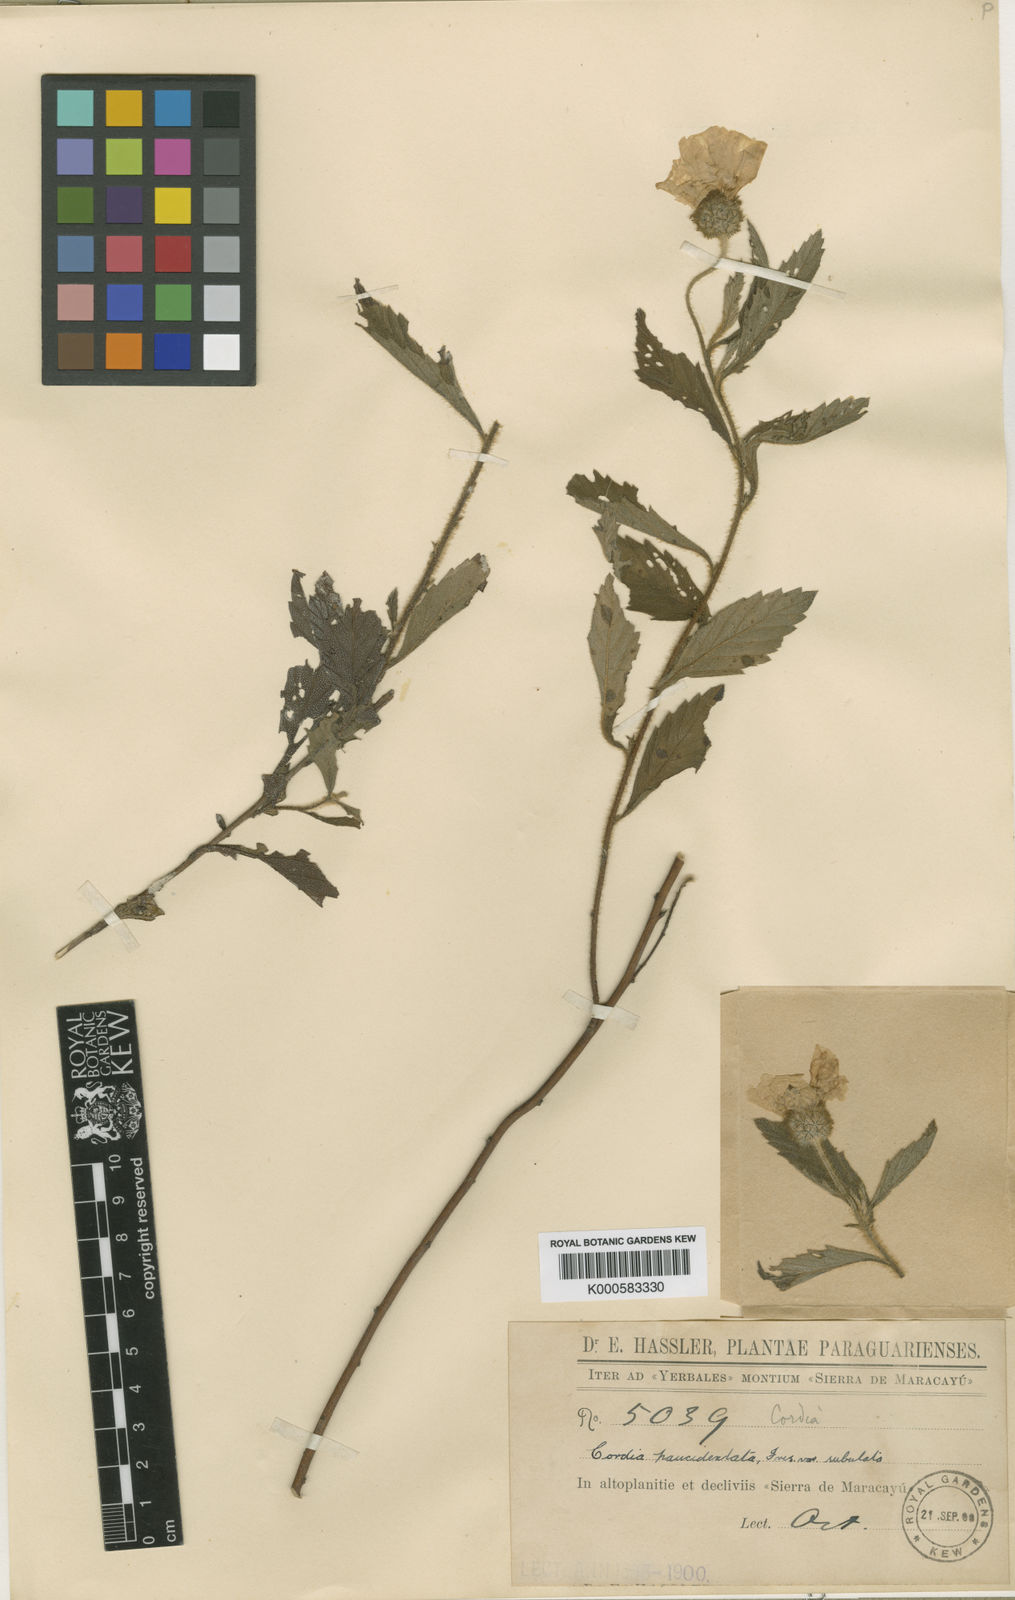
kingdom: Plantae
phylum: Tracheophyta
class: Magnoliopsida
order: Boraginales
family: Cordiaceae
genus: Varronia
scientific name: Varronia paucidentata
